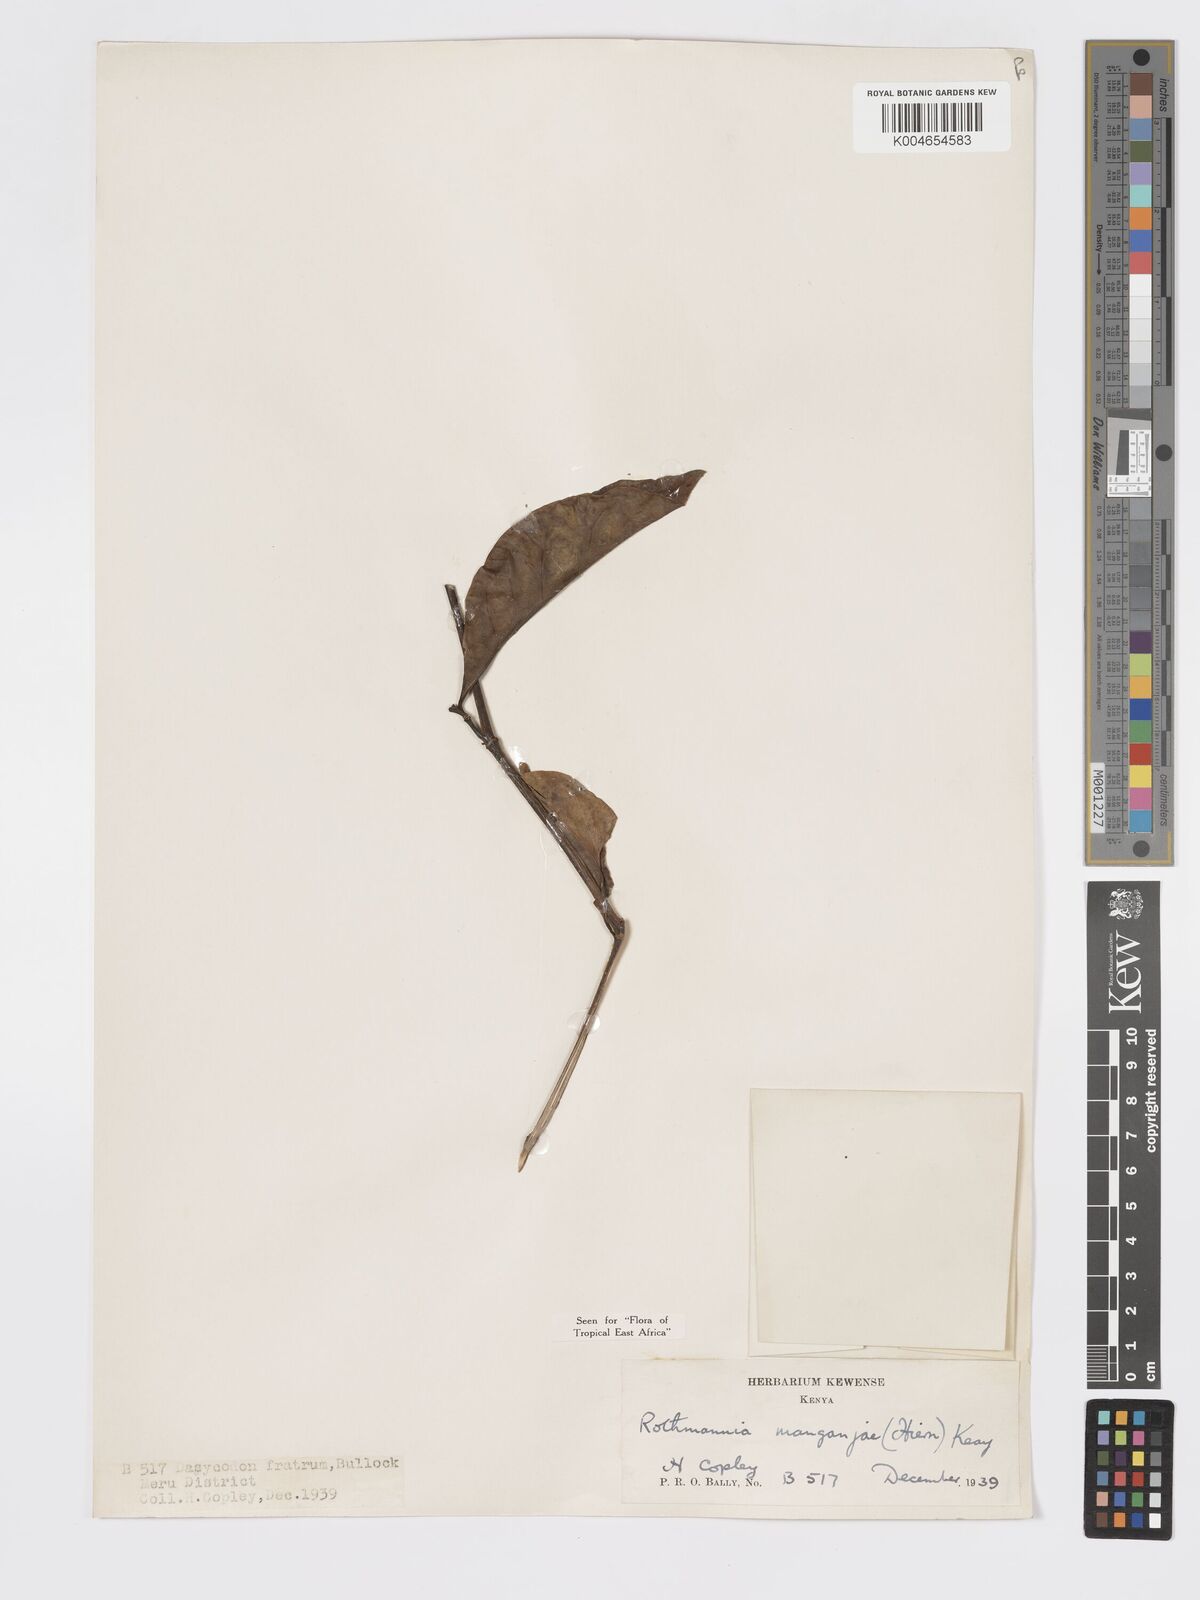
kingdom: Plantae
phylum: Tracheophyta
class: Magnoliopsida
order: Gentianales
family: Rubiaceae
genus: Rothmannia
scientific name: Rothmannia manganjae
